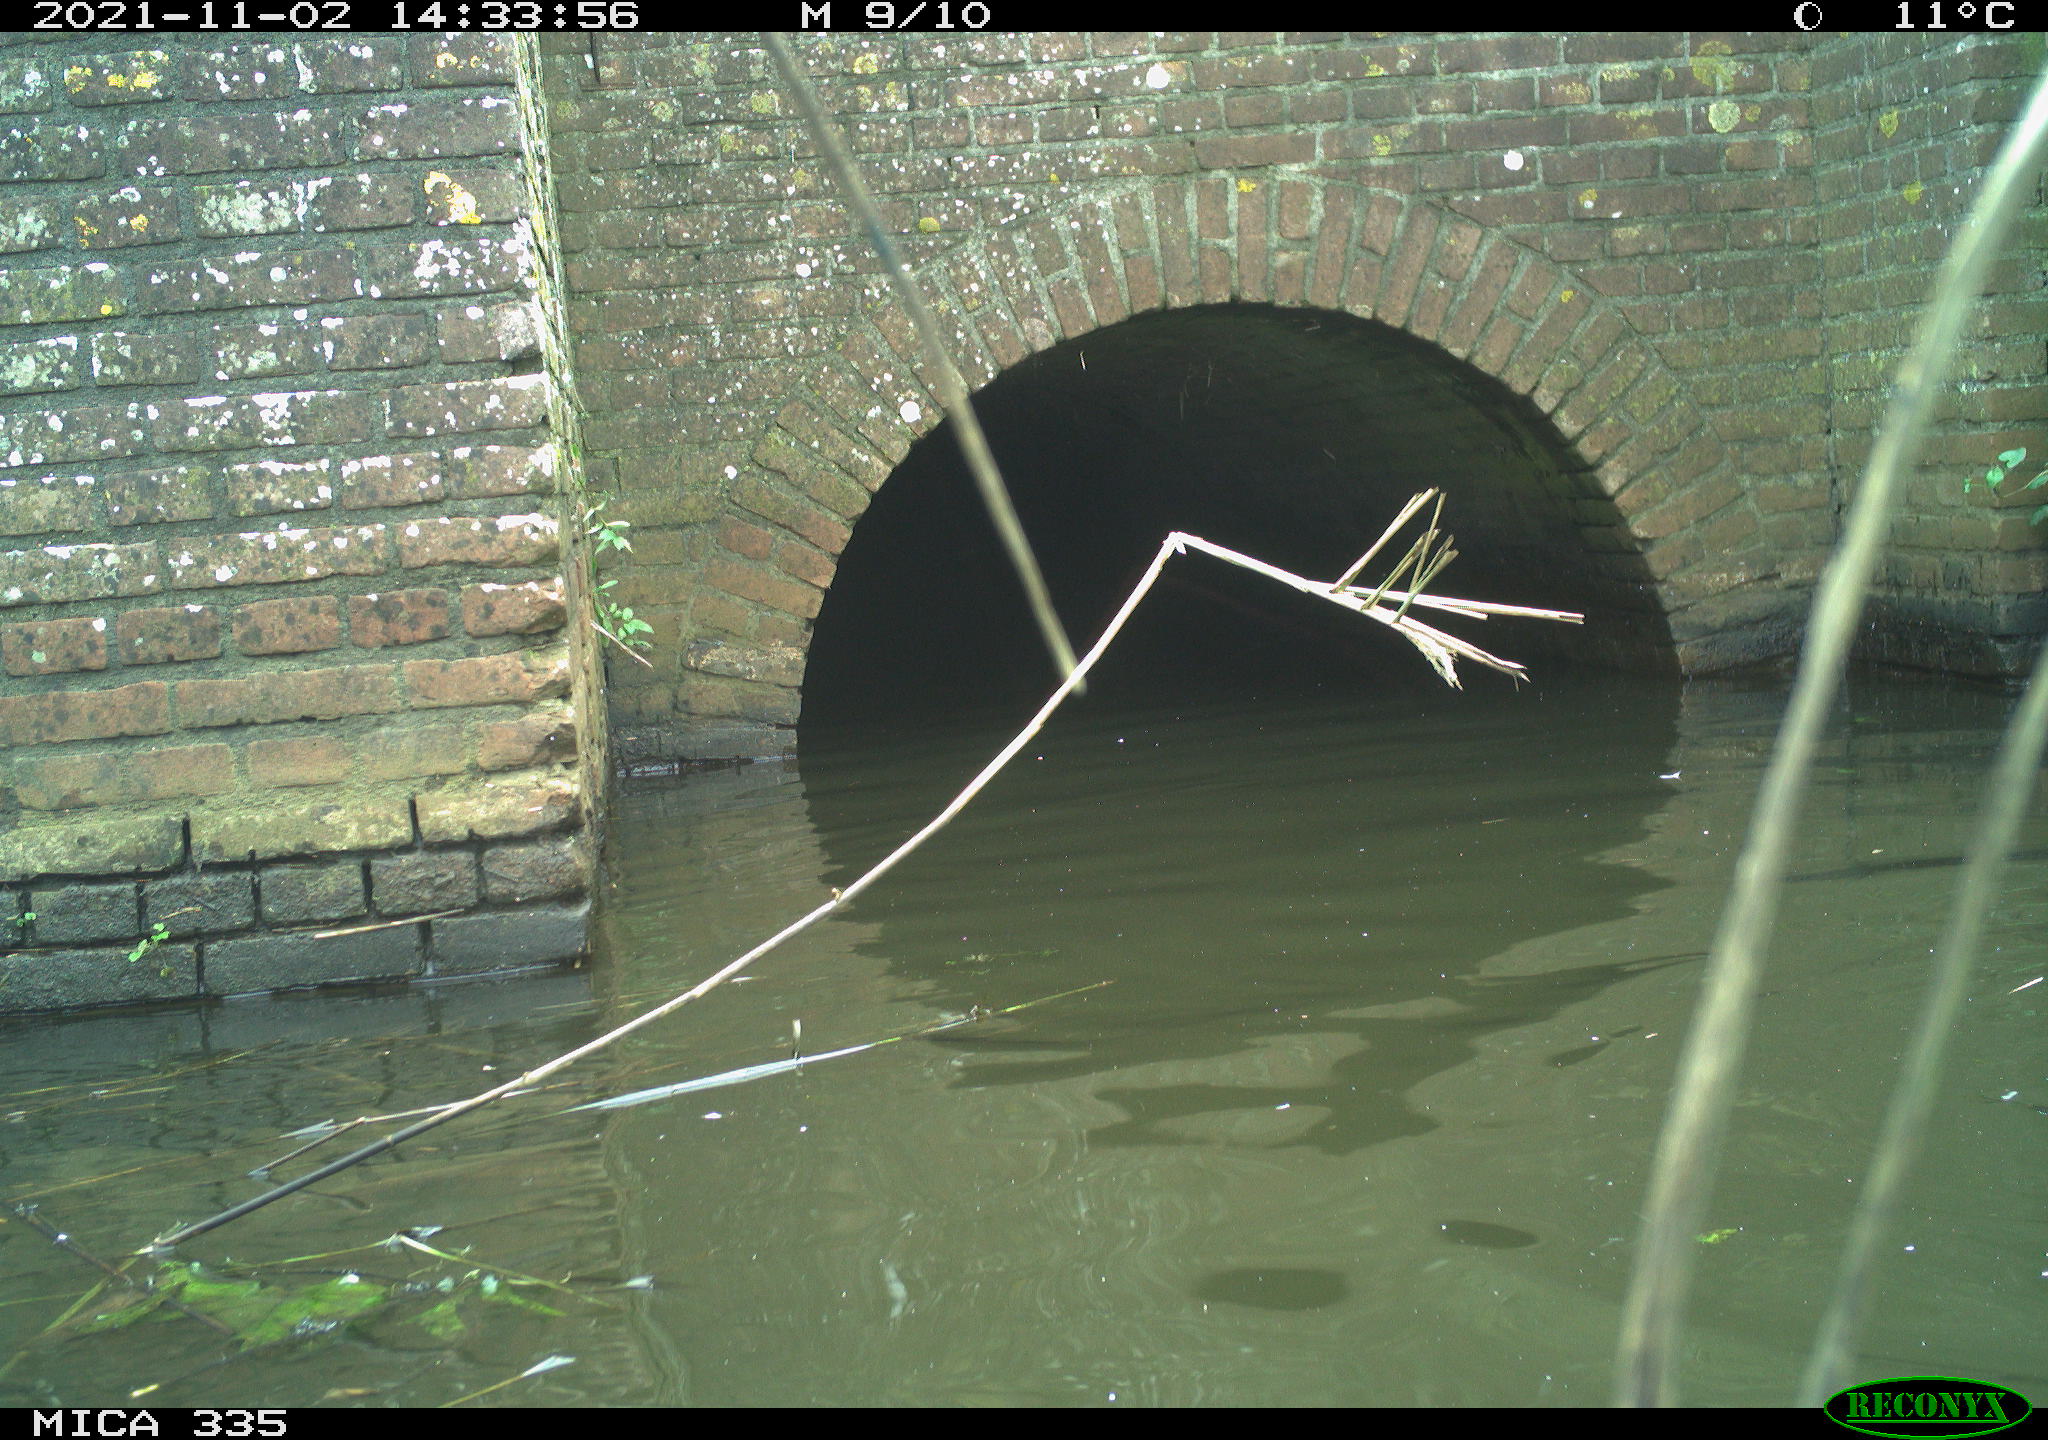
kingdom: Animalia
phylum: Chordata
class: Aves
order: Anseriformes
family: Anatidae
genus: Anas
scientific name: Anas platyrhynchos
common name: Mallard
